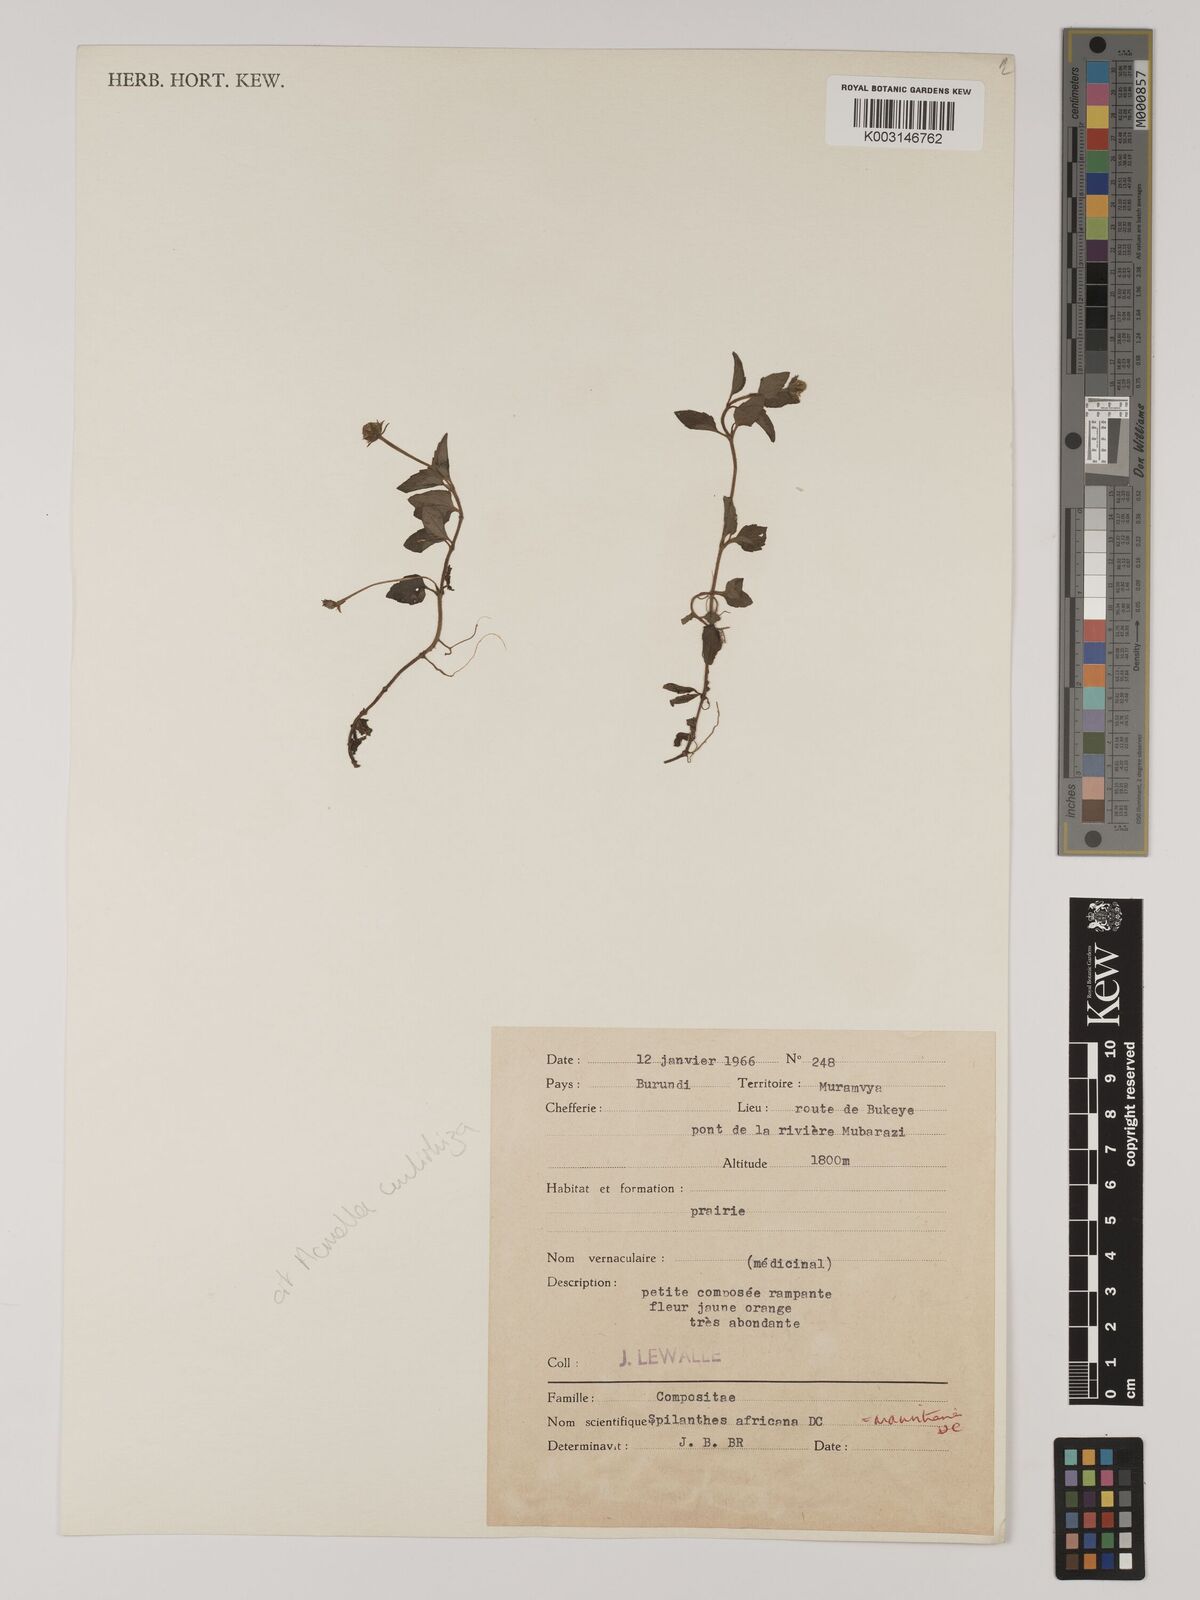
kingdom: Plantae
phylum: Tracheophyta
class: Magnoliopsida
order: Asterales
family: Asteraceae
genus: Blainvillea
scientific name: Blainvillea acmella
